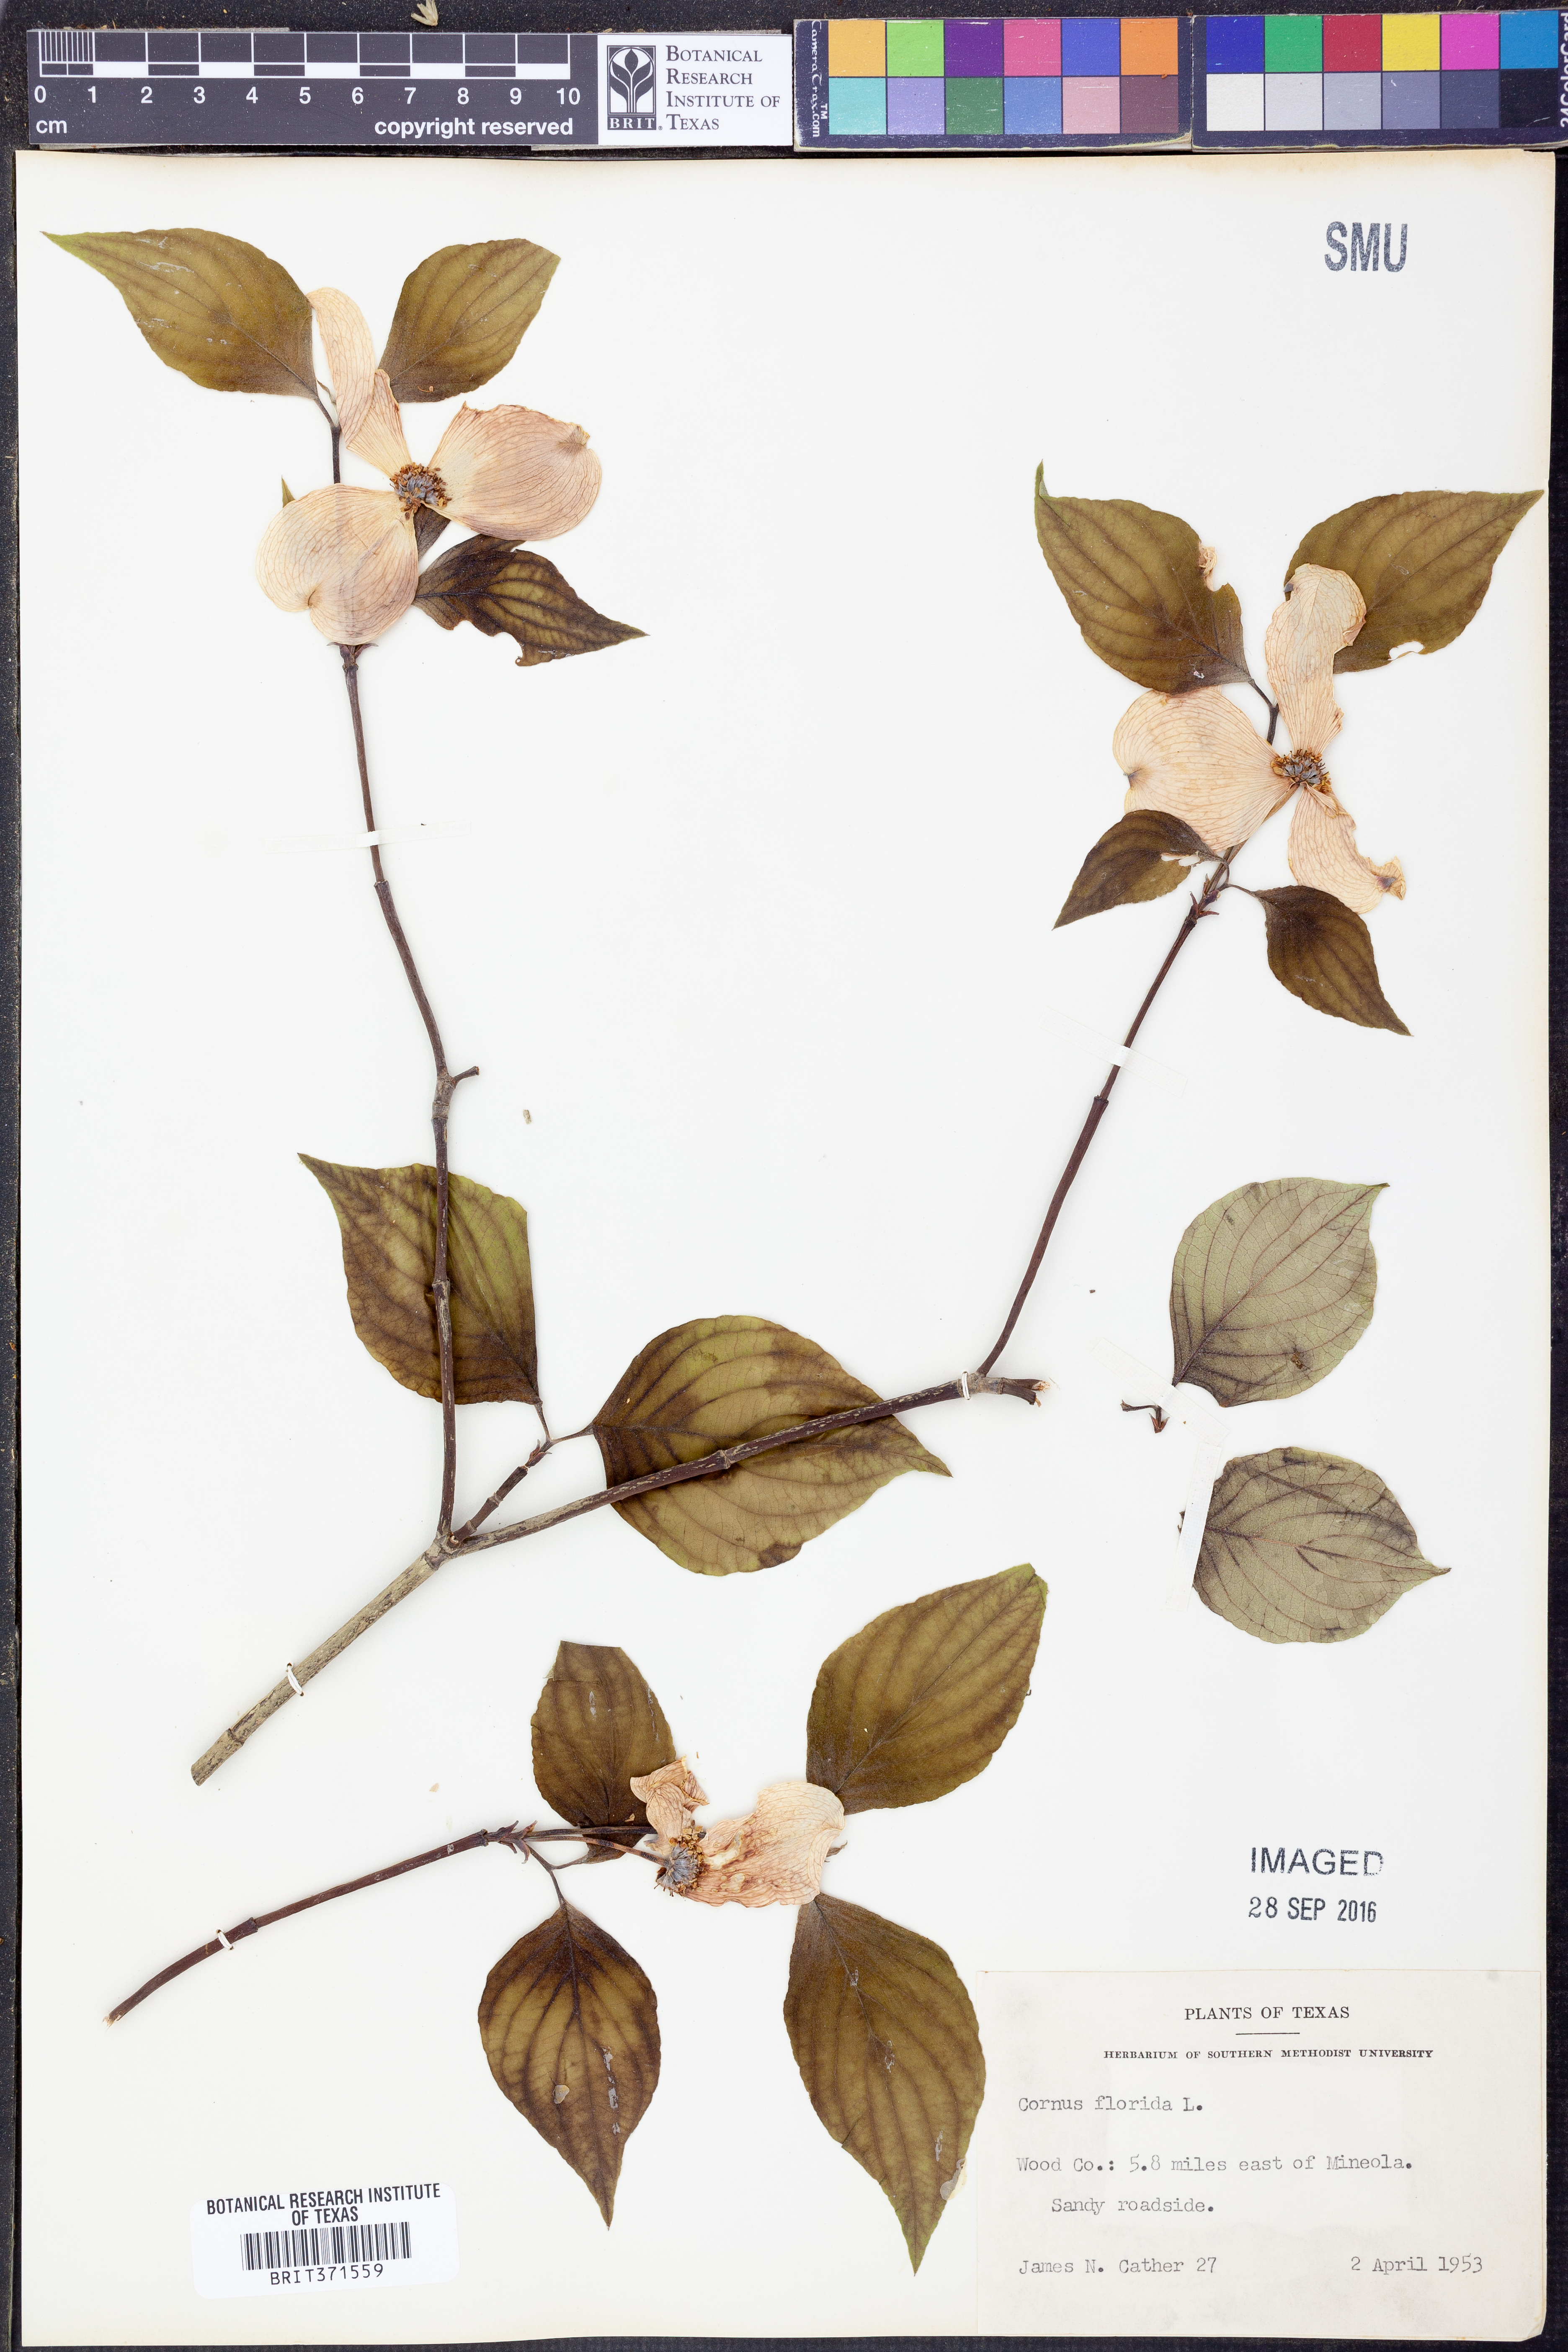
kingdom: Plantae
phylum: Tracheophyta
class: Magnoliopsida
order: Cornales
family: Cornaceae
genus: Cornus
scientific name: Cornus florida
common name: Flowering dogwood
